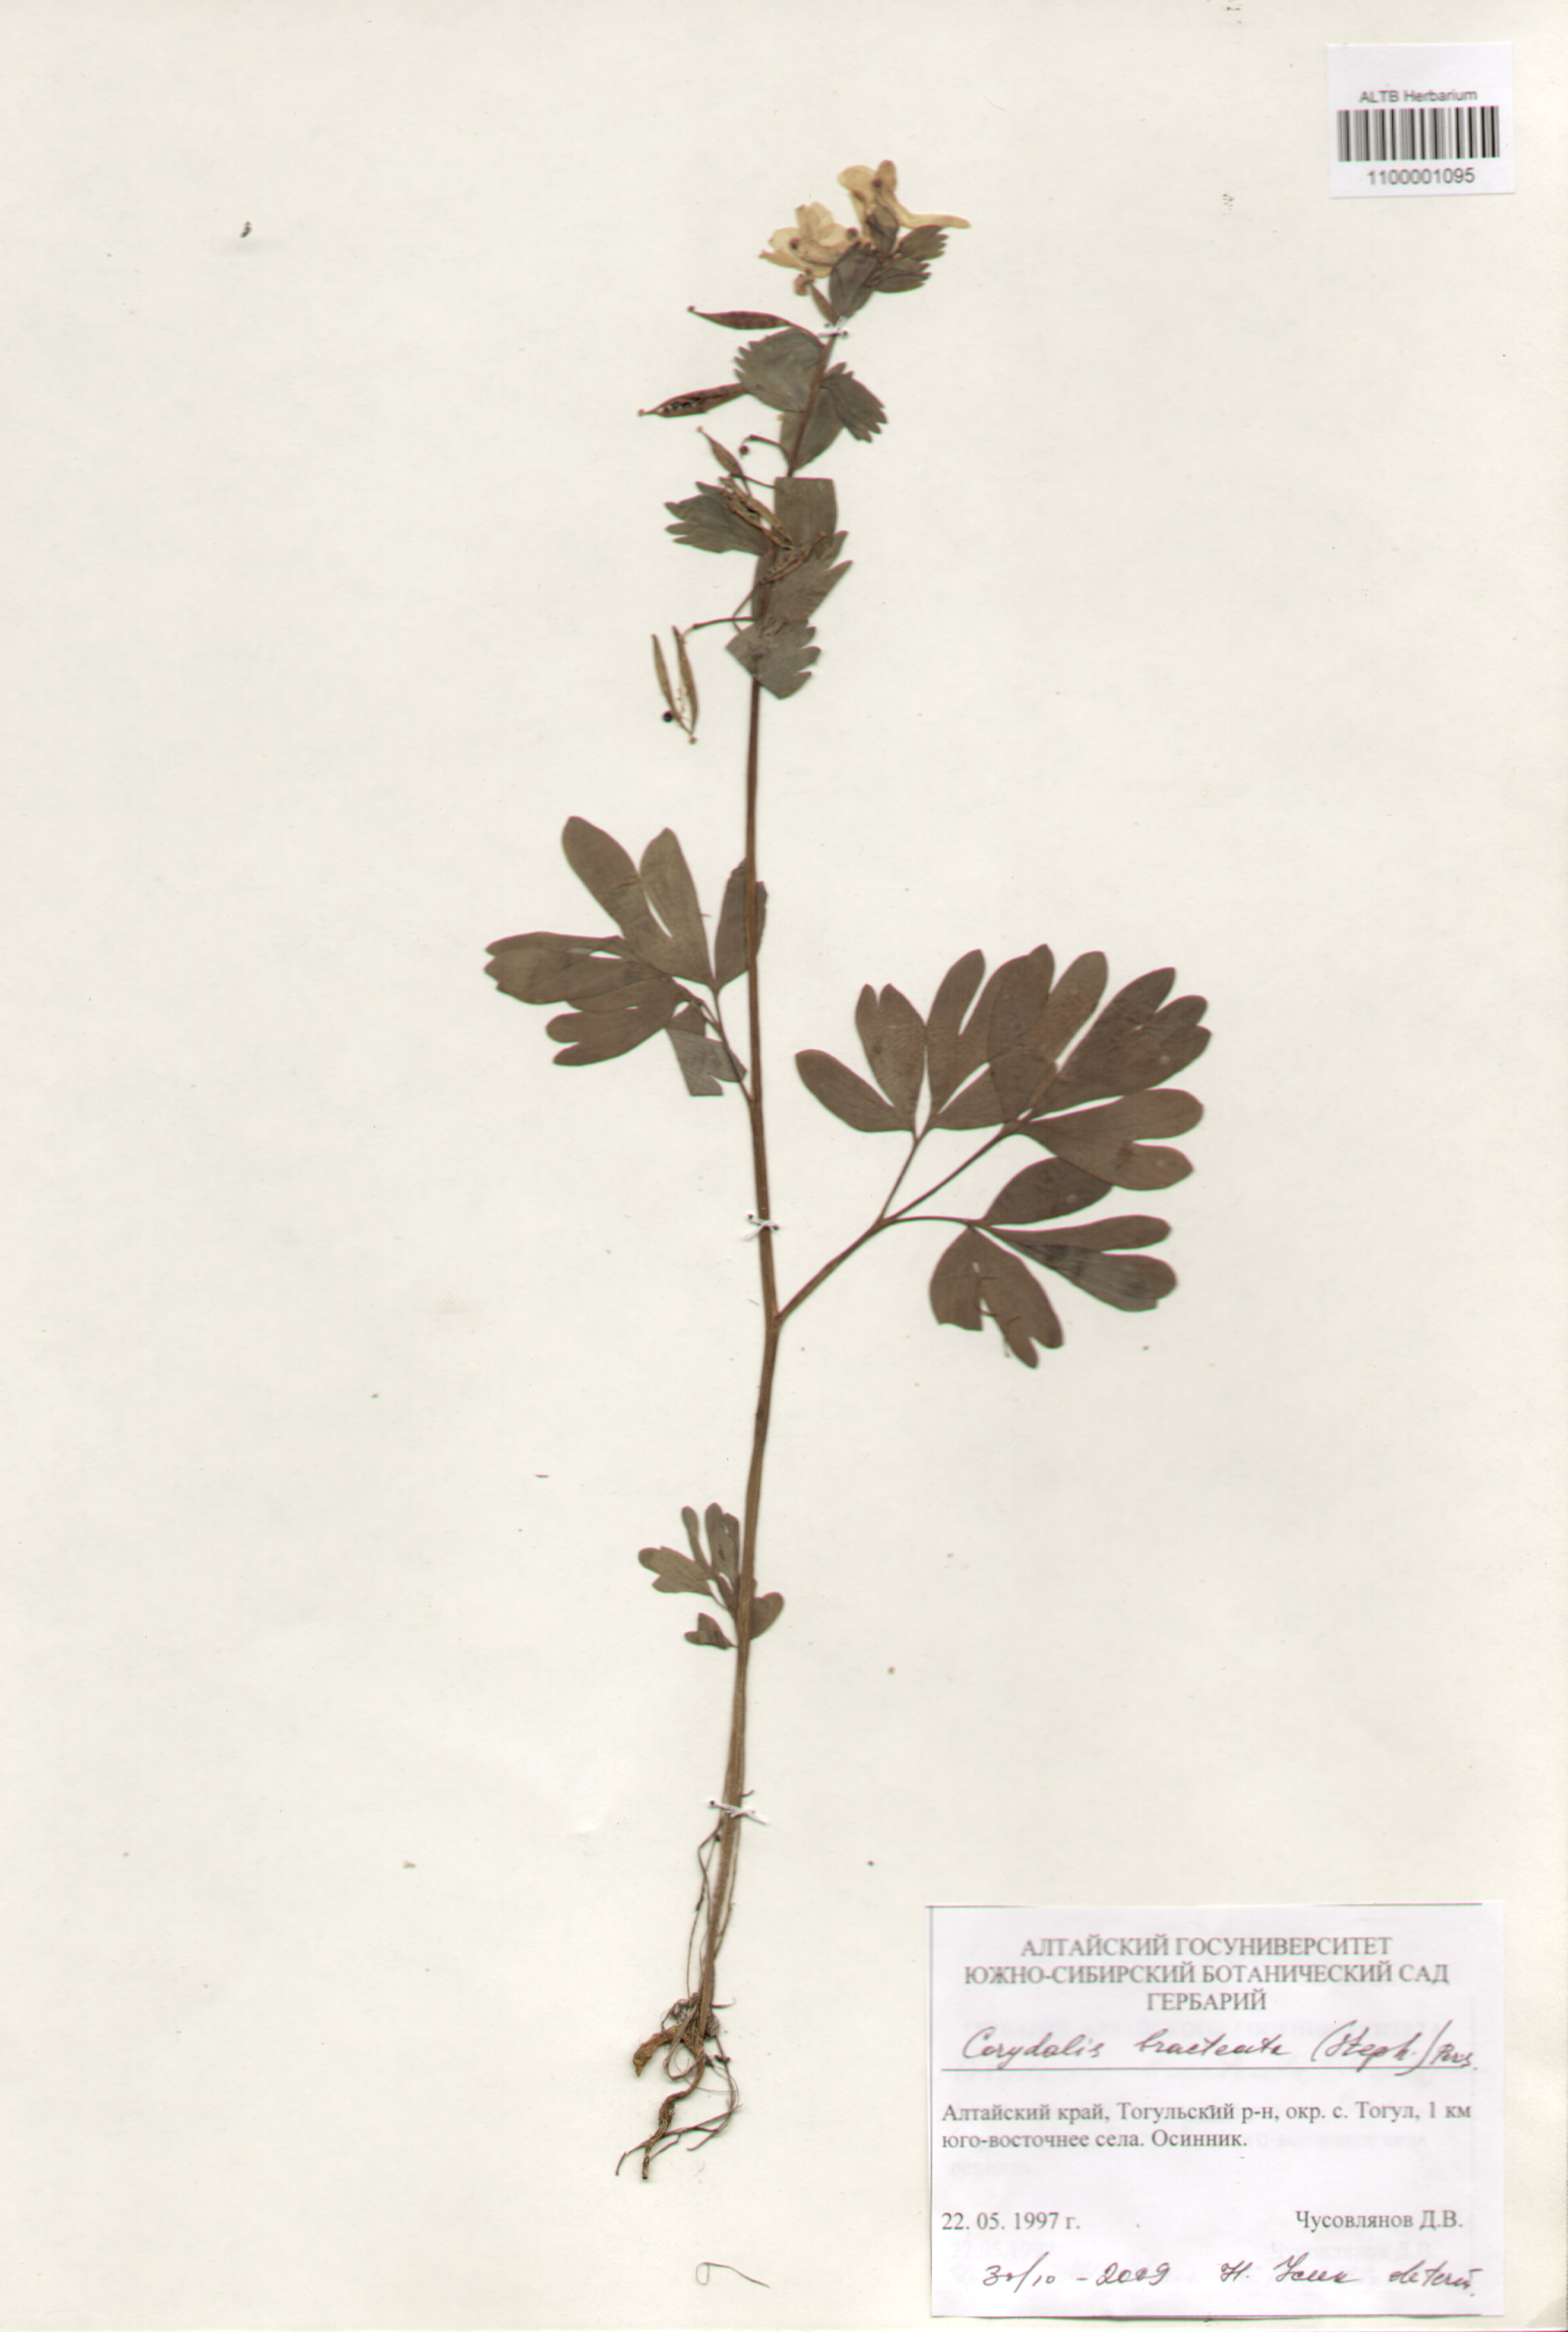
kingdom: Plantae
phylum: Tracheophyta
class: Magnoliopsida
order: Ranunculales
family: Papaveraceae
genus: Corydalis
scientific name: Corydalis bracteata
